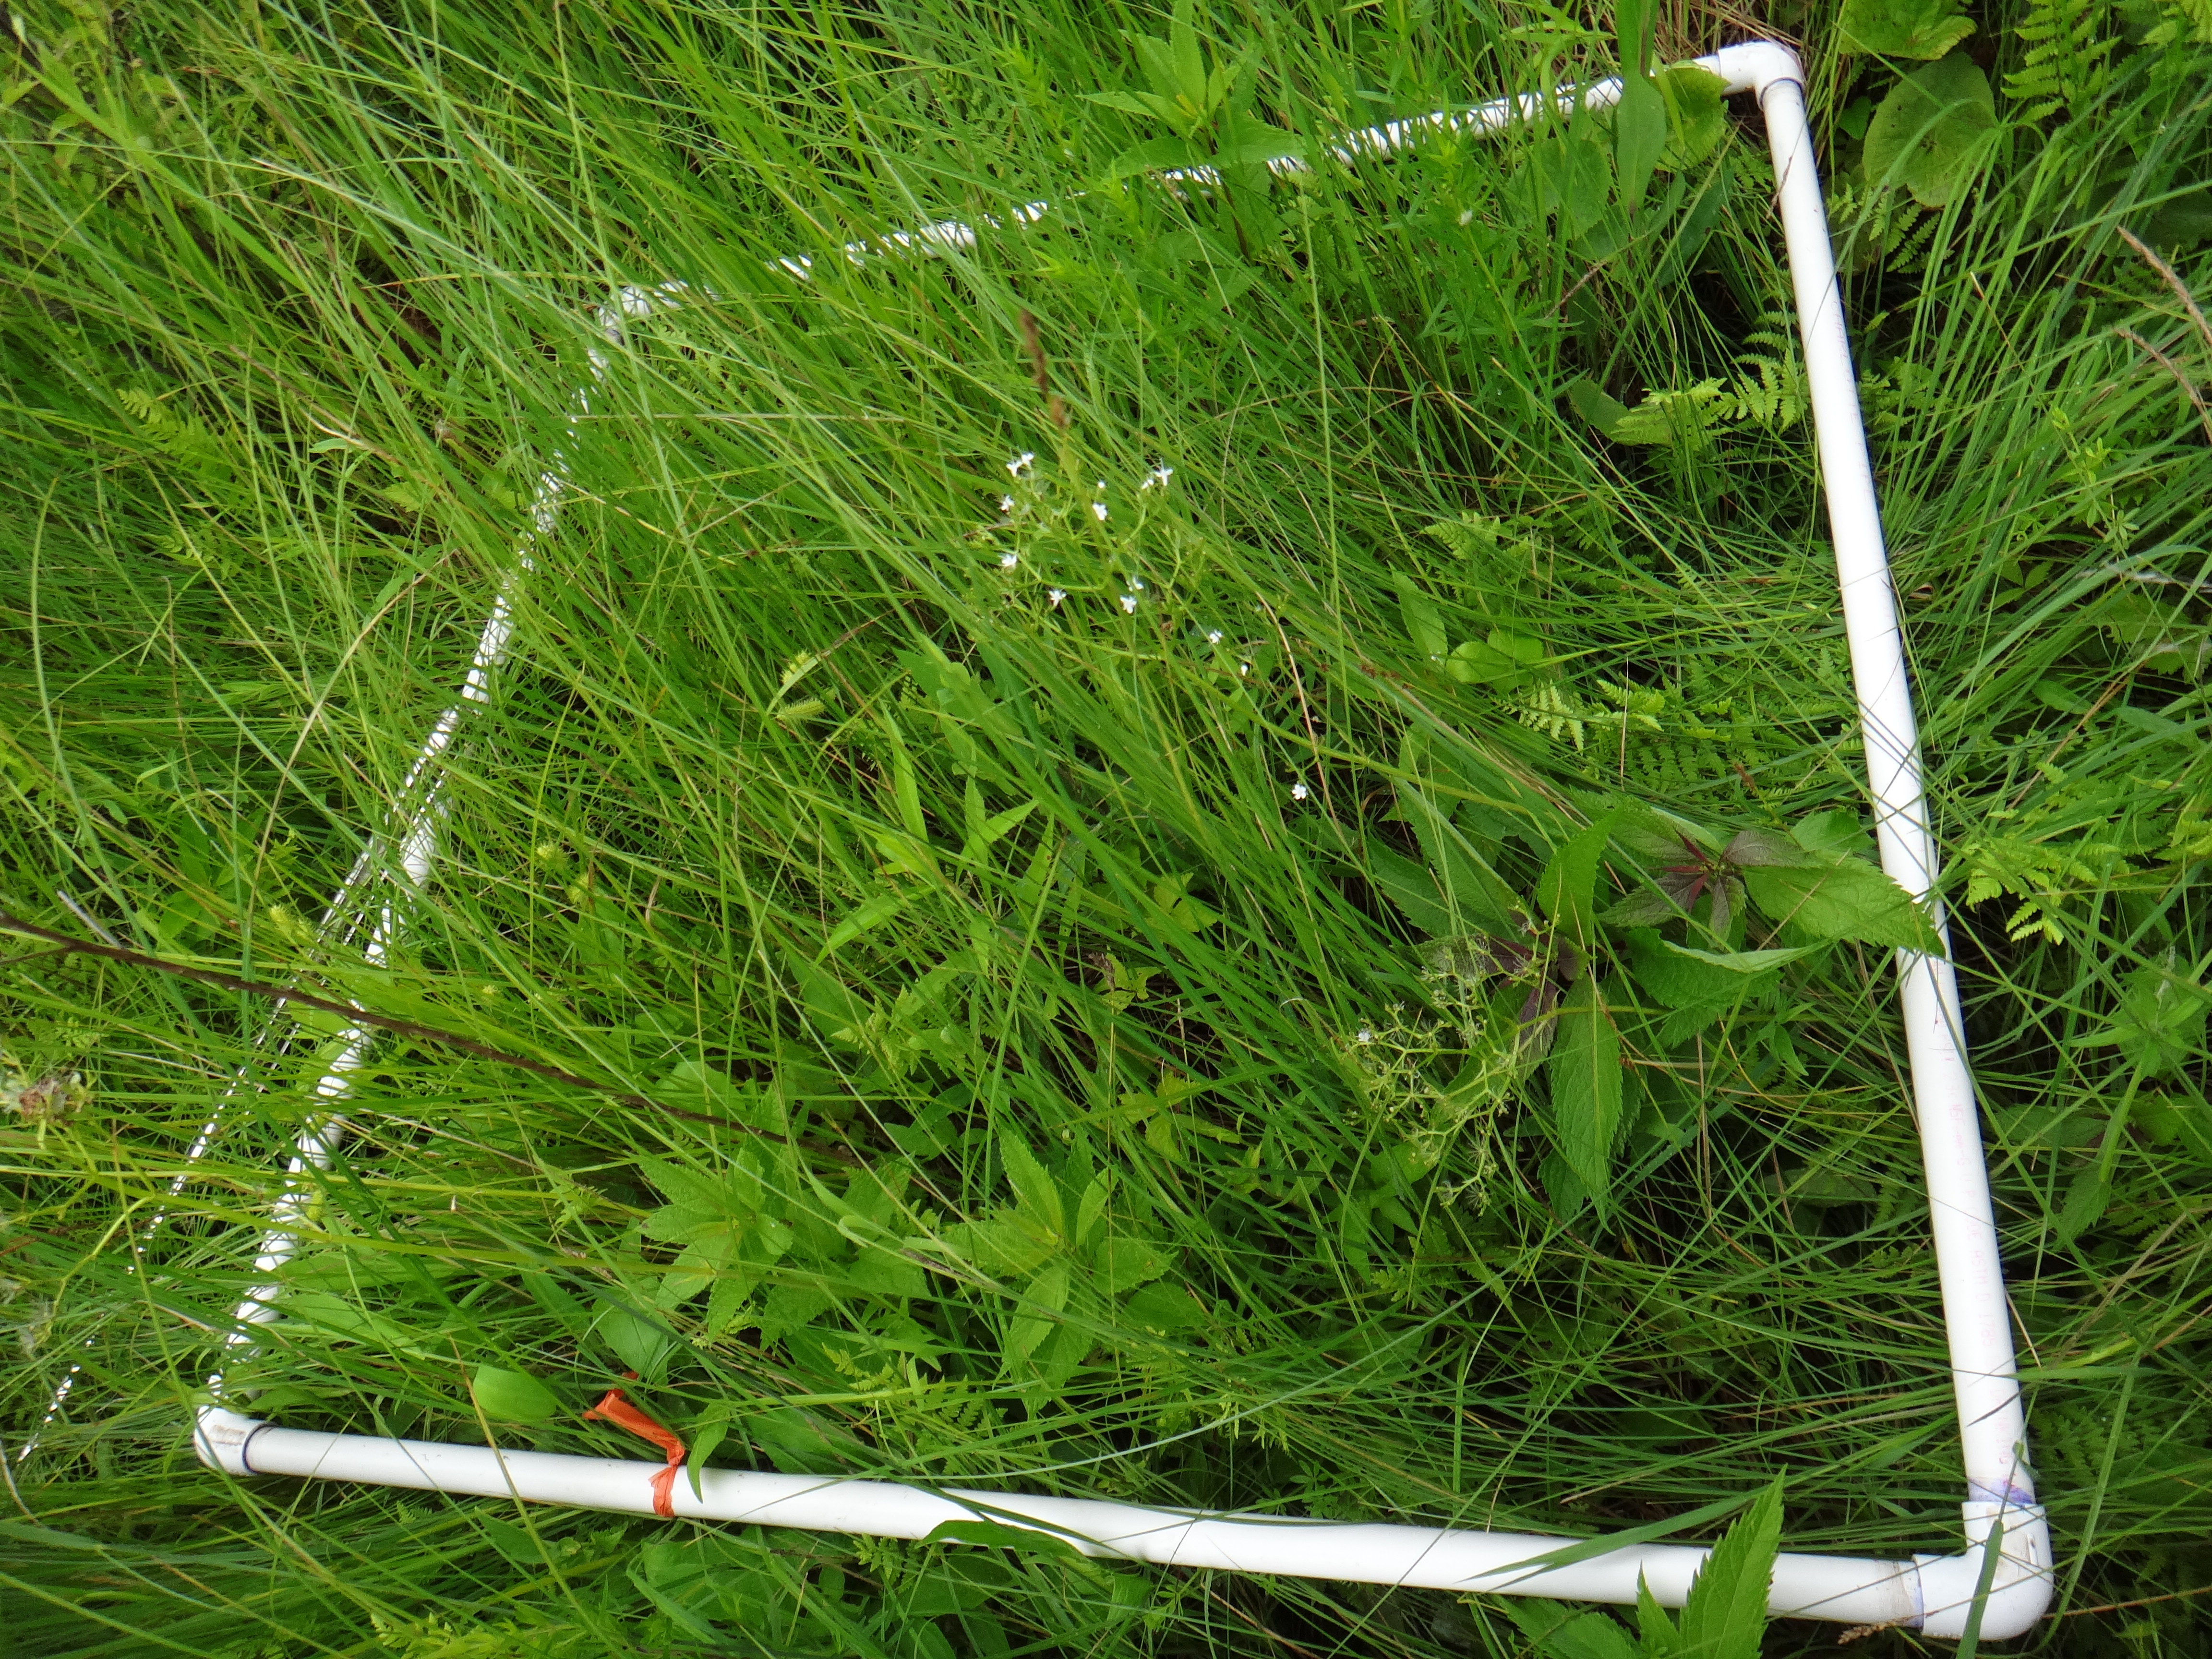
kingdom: Plantae
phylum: Tracheophyta
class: Liliopsida
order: Poales
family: Cyperaceae
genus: Carex
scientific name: Carex prairea
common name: Prairie sedge
